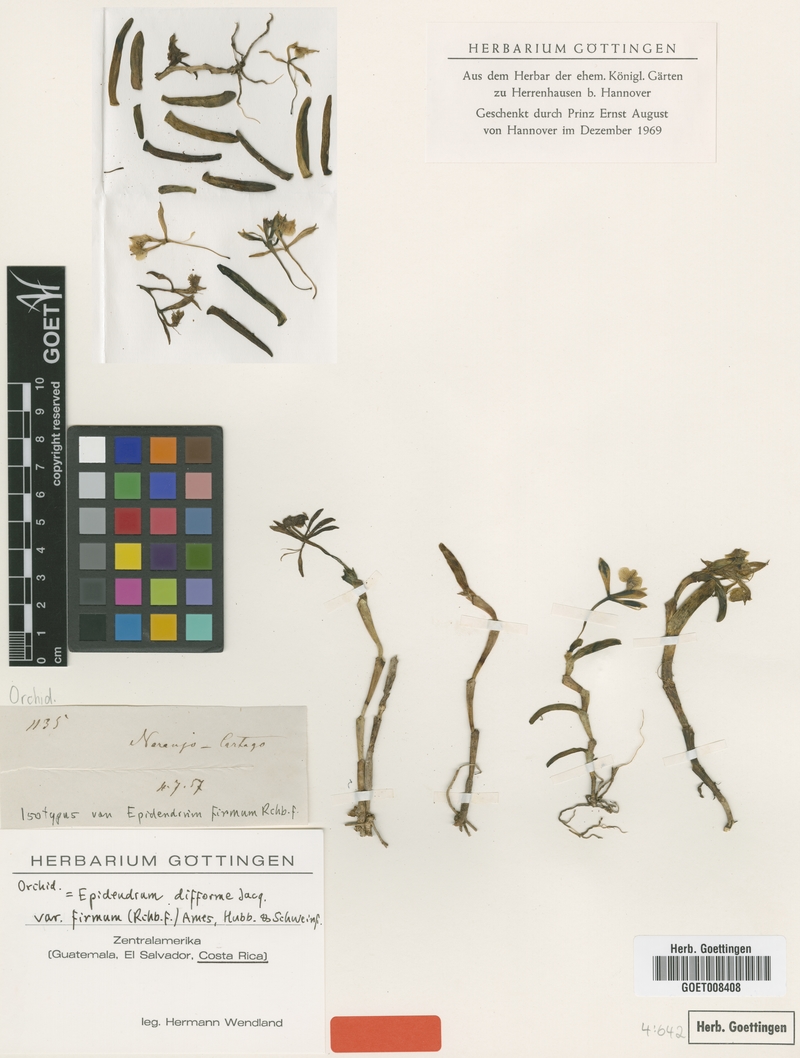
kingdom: Plantae
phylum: Tracheophyta
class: Liliopsida
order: Asparagales
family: Orchidaceae
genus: Epidendrum
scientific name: Epidendrum difforme
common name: Umbrella epidendrum
